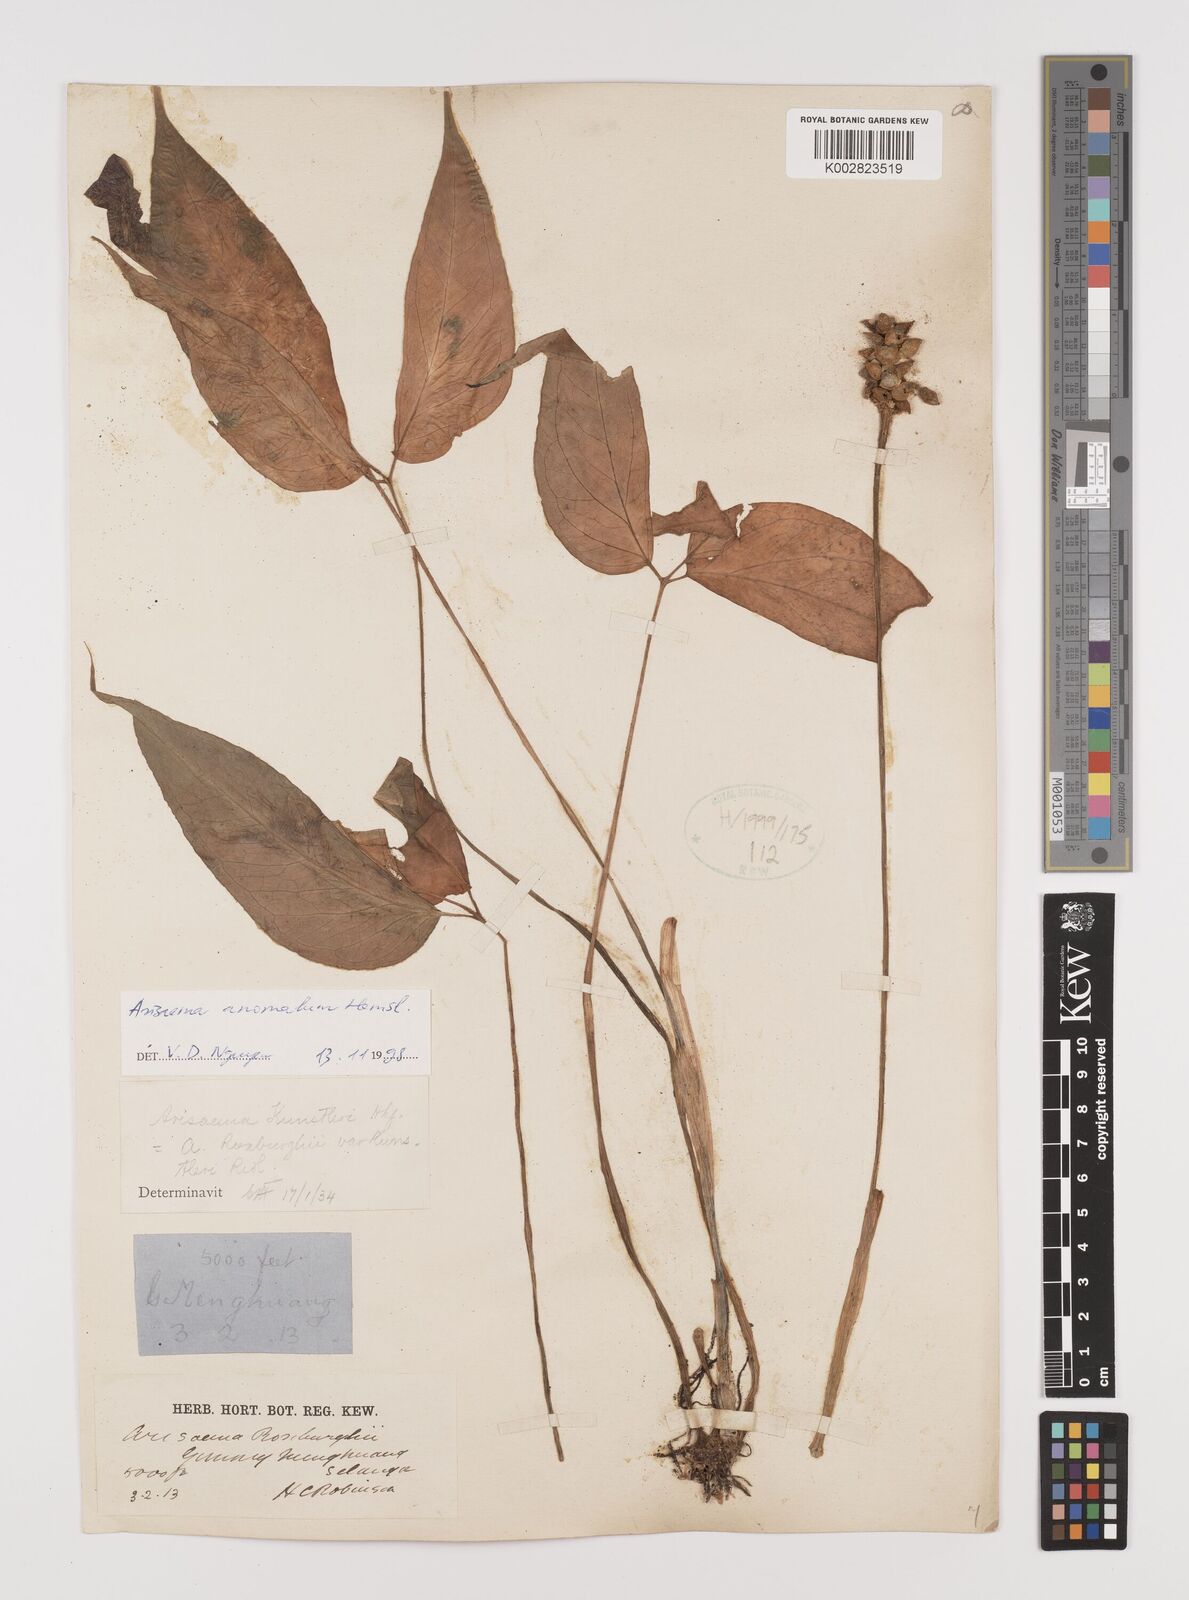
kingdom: Plantae
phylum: Tracheophyta
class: Liliopsida
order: Alismatales
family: Araceae
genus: Arisaema
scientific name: Arisaema anomalum
